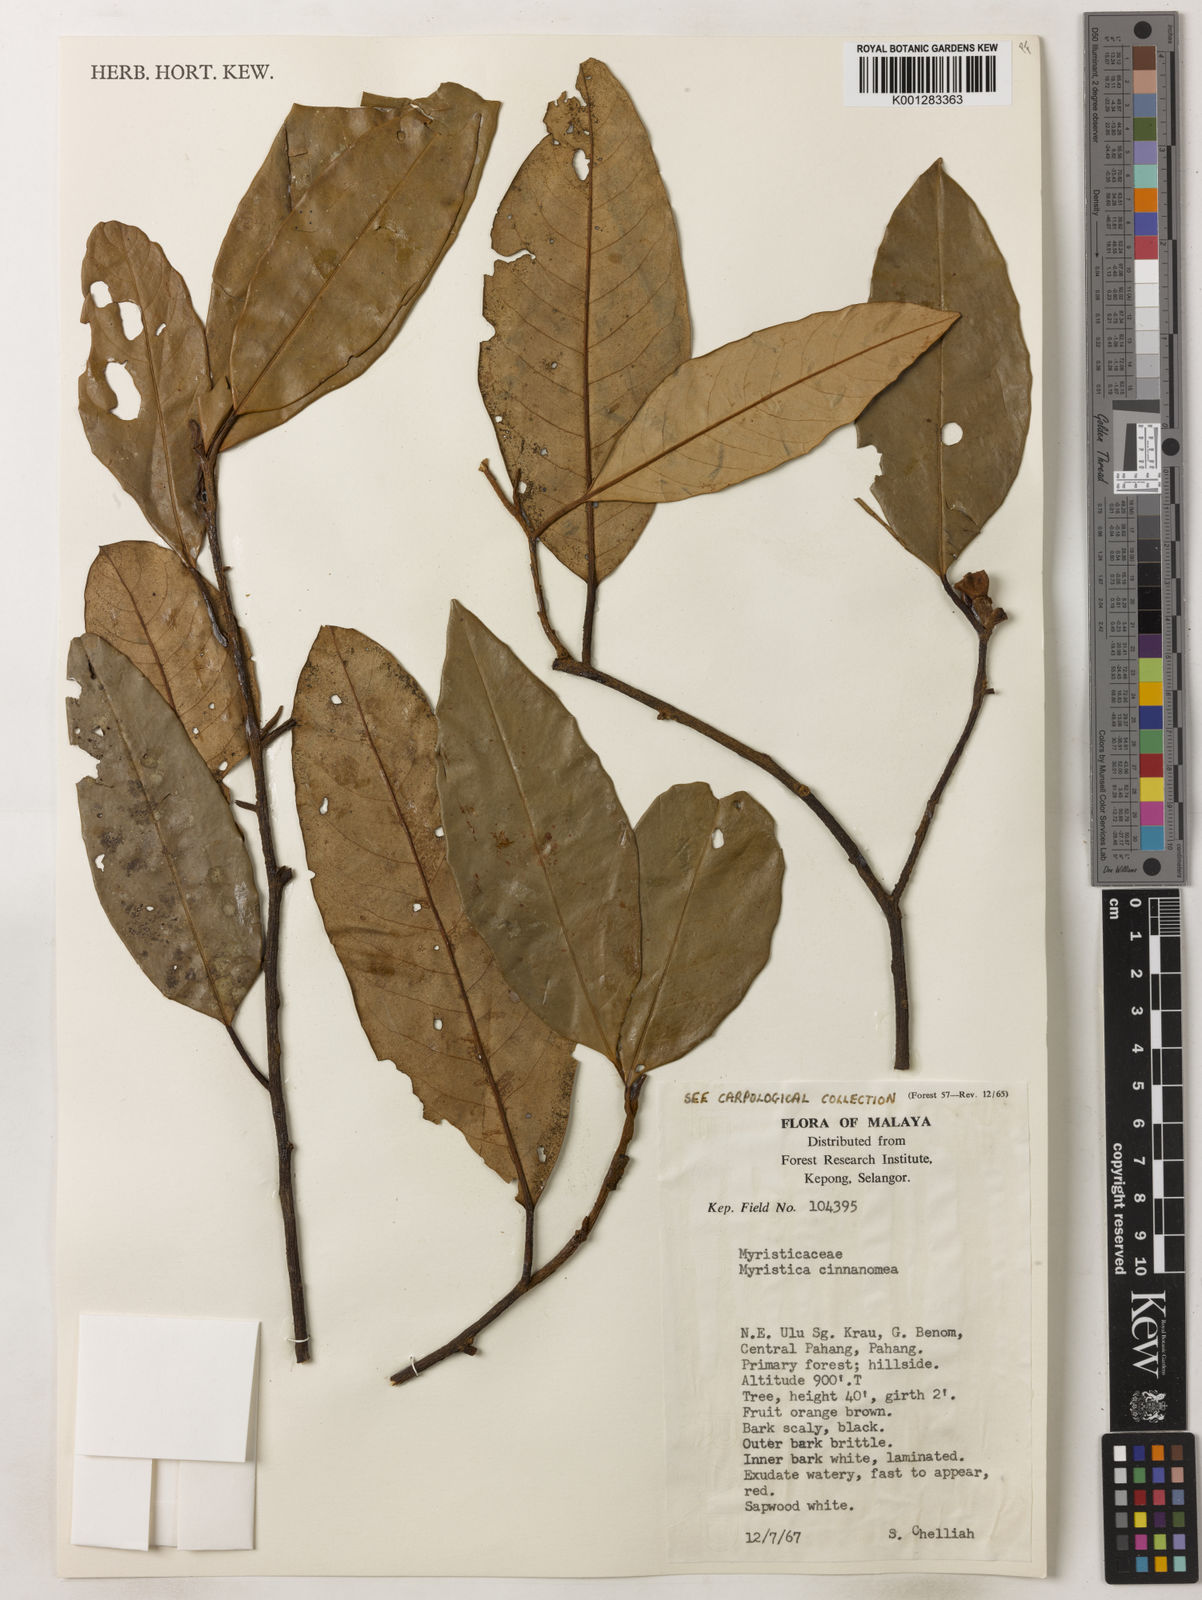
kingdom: Plantae
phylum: Tracheophyta
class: Magnoliopsida
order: Magnoliales
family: Myristicaceae
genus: Myristica
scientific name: Myristica cinnamomea
